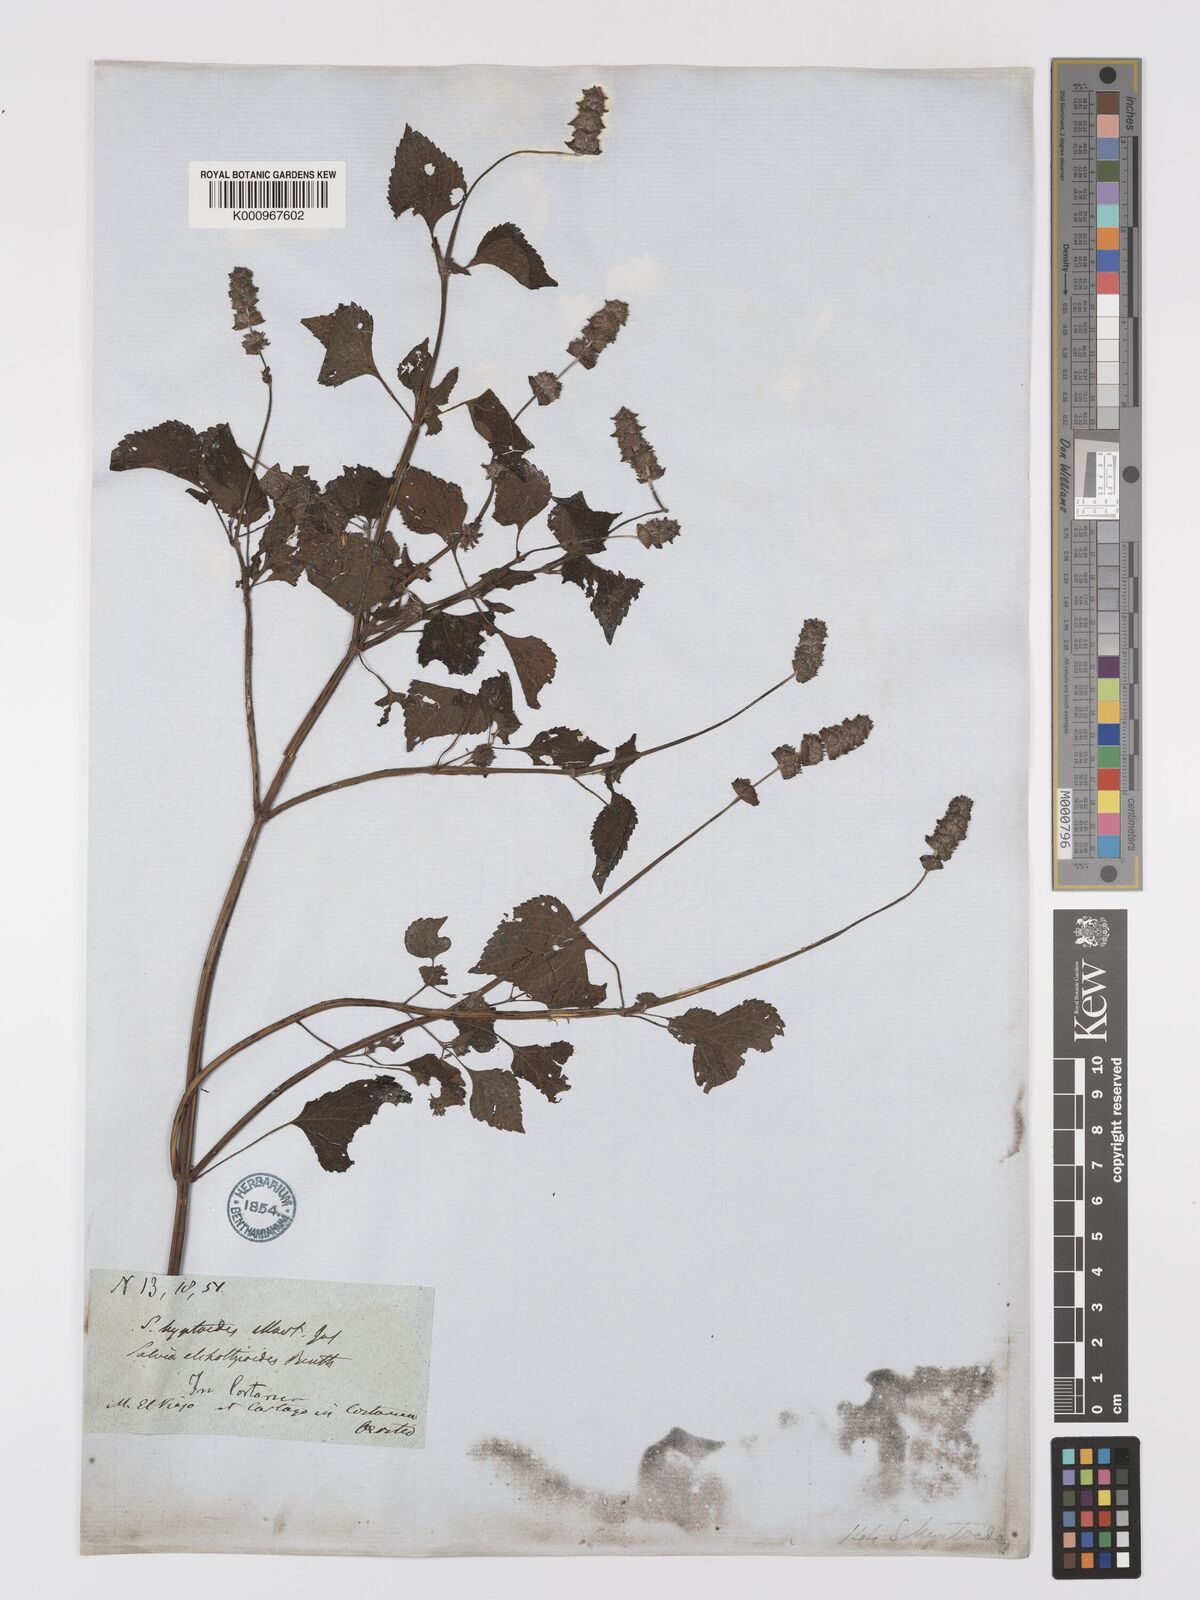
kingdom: Plantae
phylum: Tracheophyta
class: Magnoliopsida
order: Lamiales
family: Lamiaceae
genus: Salvia
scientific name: Salvia lasiocephala
